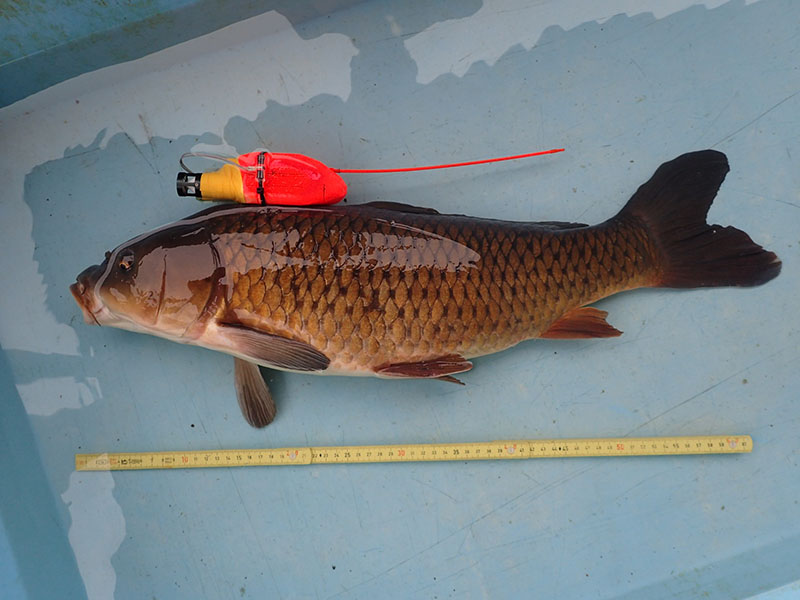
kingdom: Animalia
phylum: Chordata
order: Cypriniformes
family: Cyprinidae
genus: Cyprinus
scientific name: Cyprinus carpio
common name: コイ
